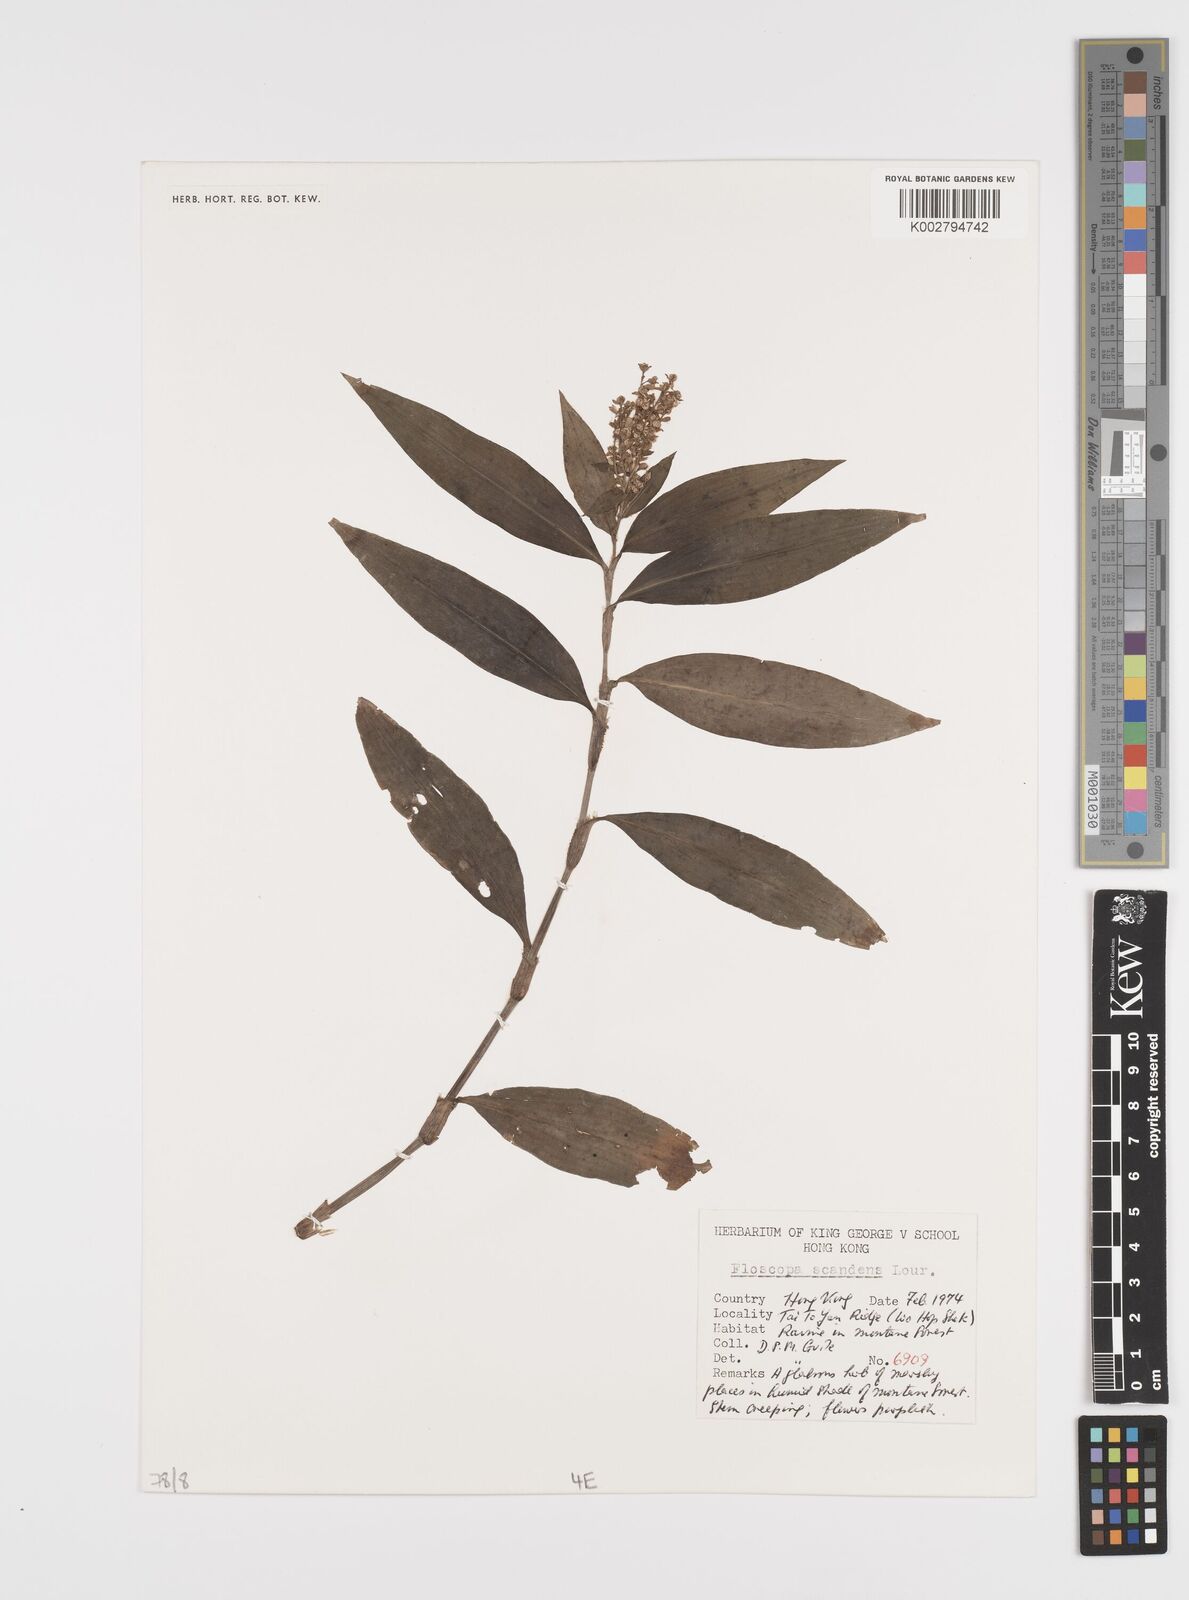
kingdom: Plantae
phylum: Tracheophyta
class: Liliopsida
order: Commelinales
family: Commelinaceae
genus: Floscopa
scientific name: Floscopa scandens
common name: Climbing flower cup
